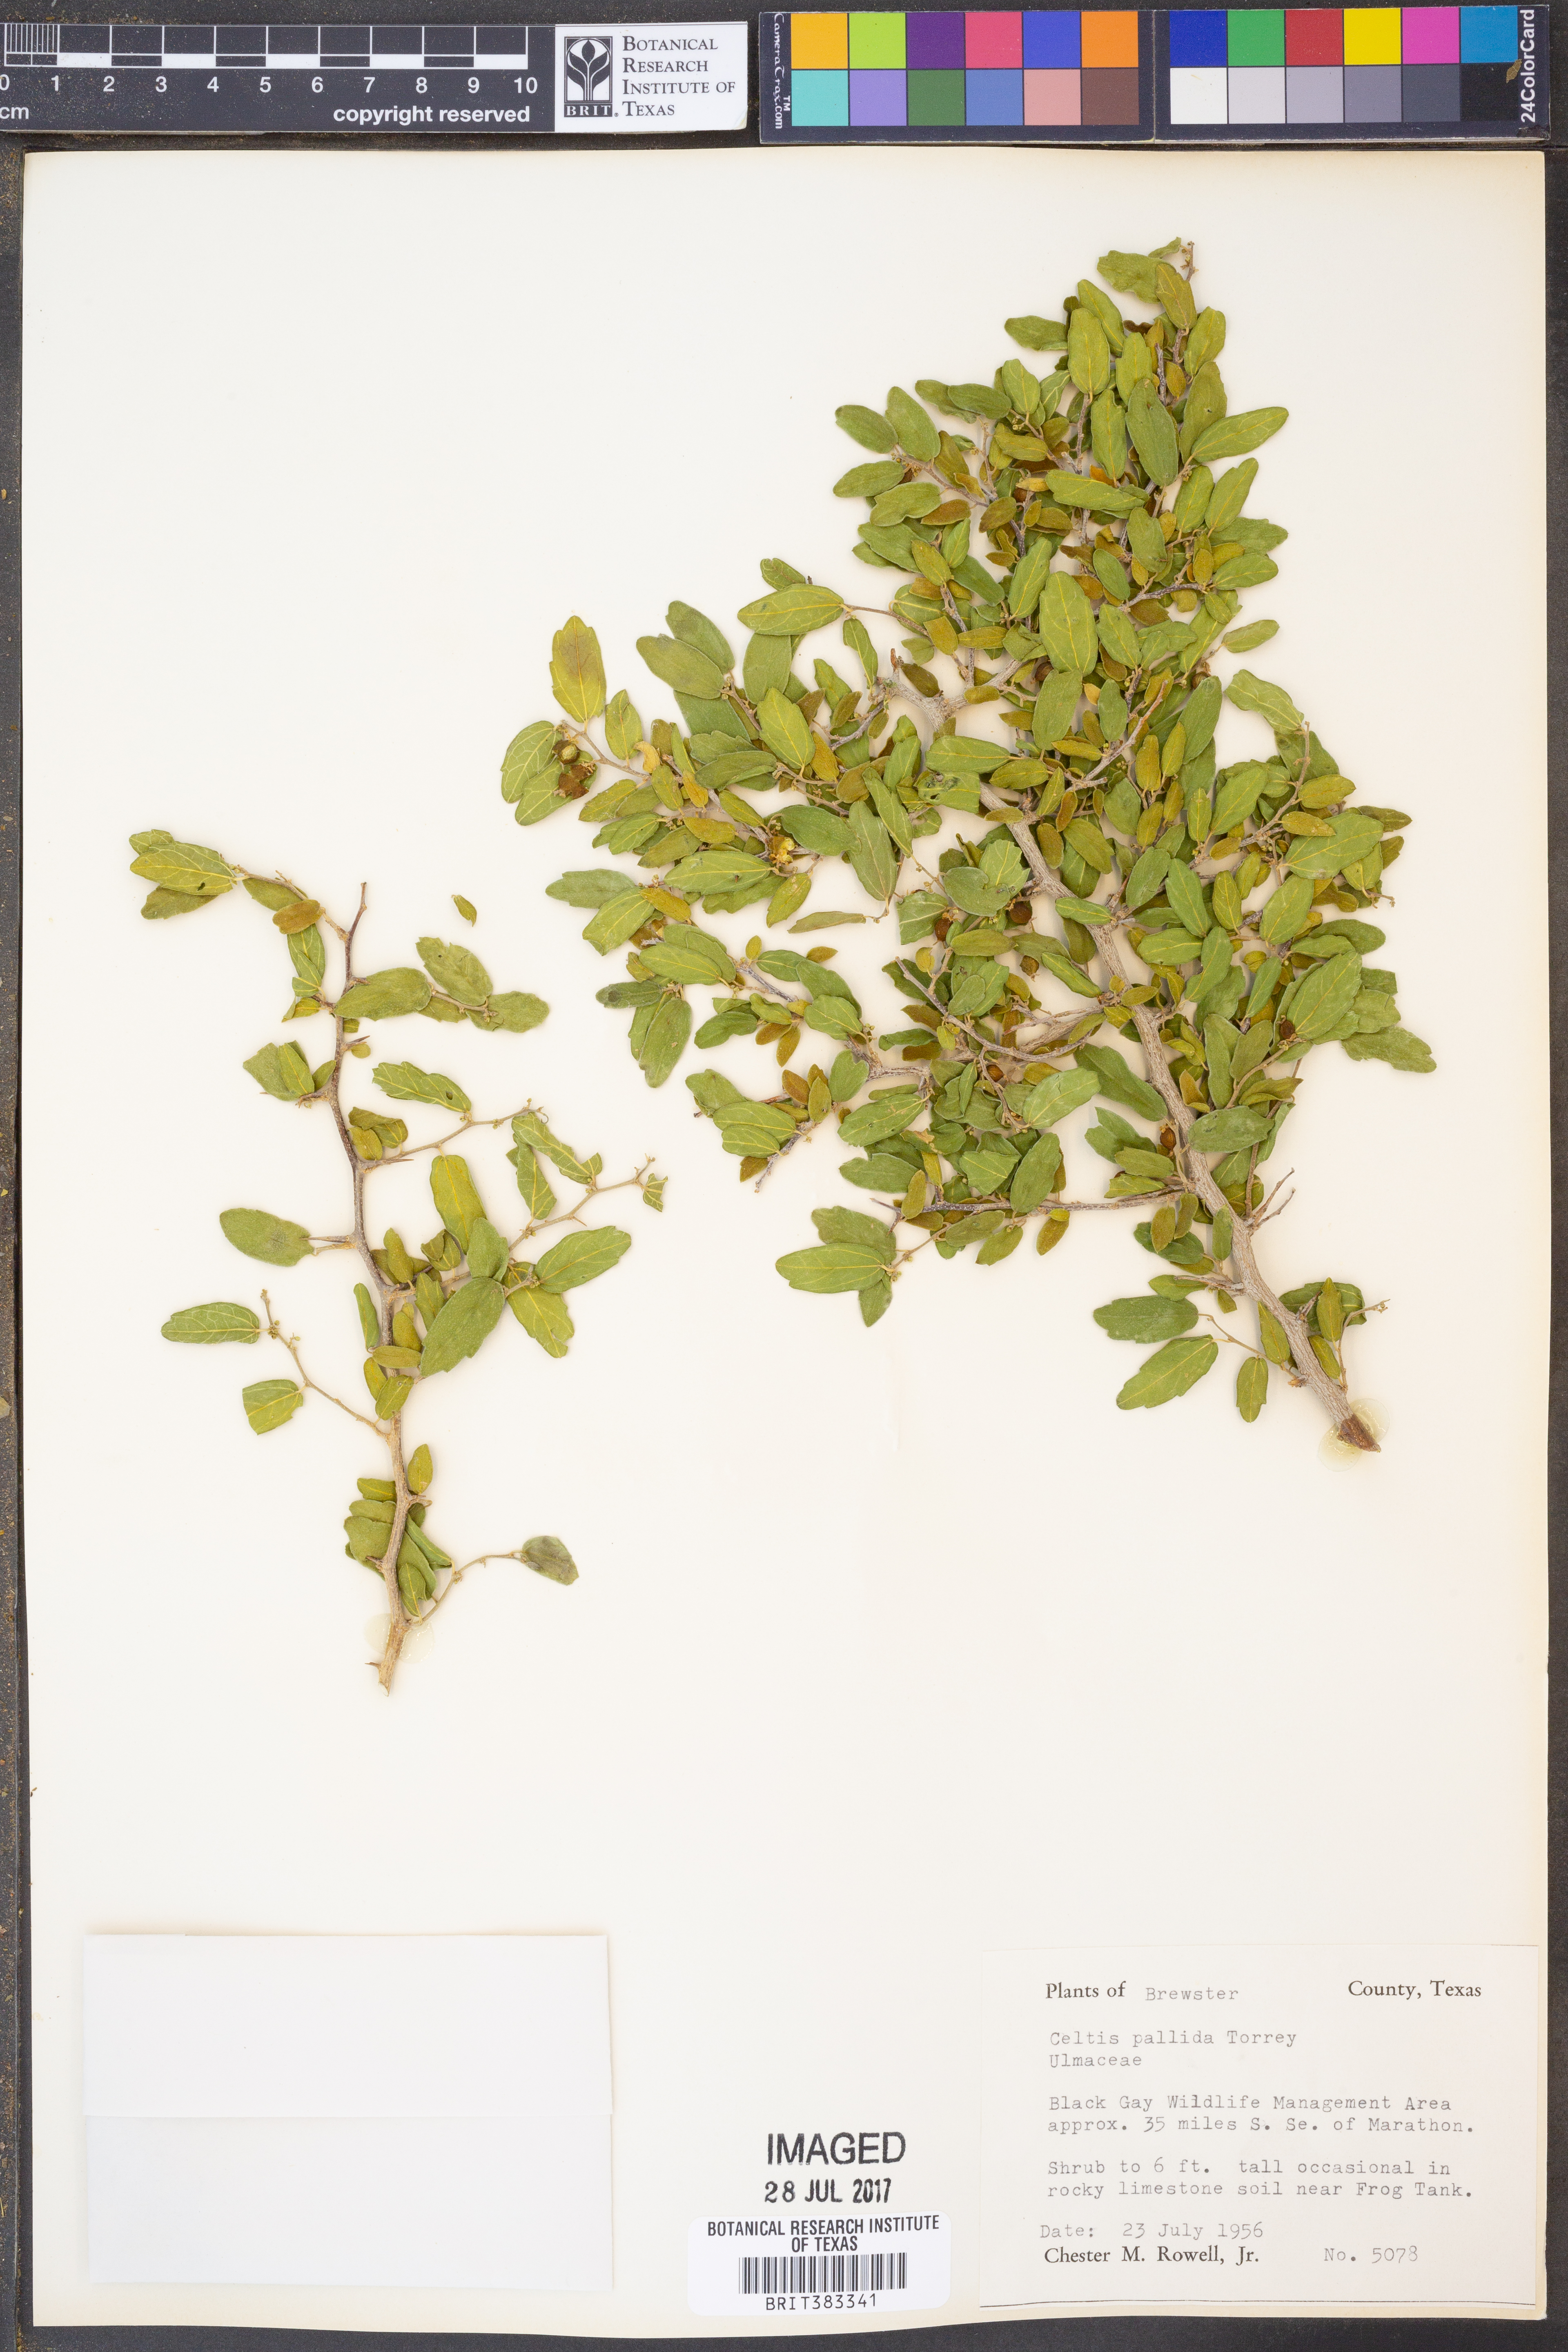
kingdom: Plantae
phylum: Tracheophyta
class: Magnoliopsida
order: Rosales
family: Cannabaceae
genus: Celtis
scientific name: Celtis pallida
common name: Desert hackberry
